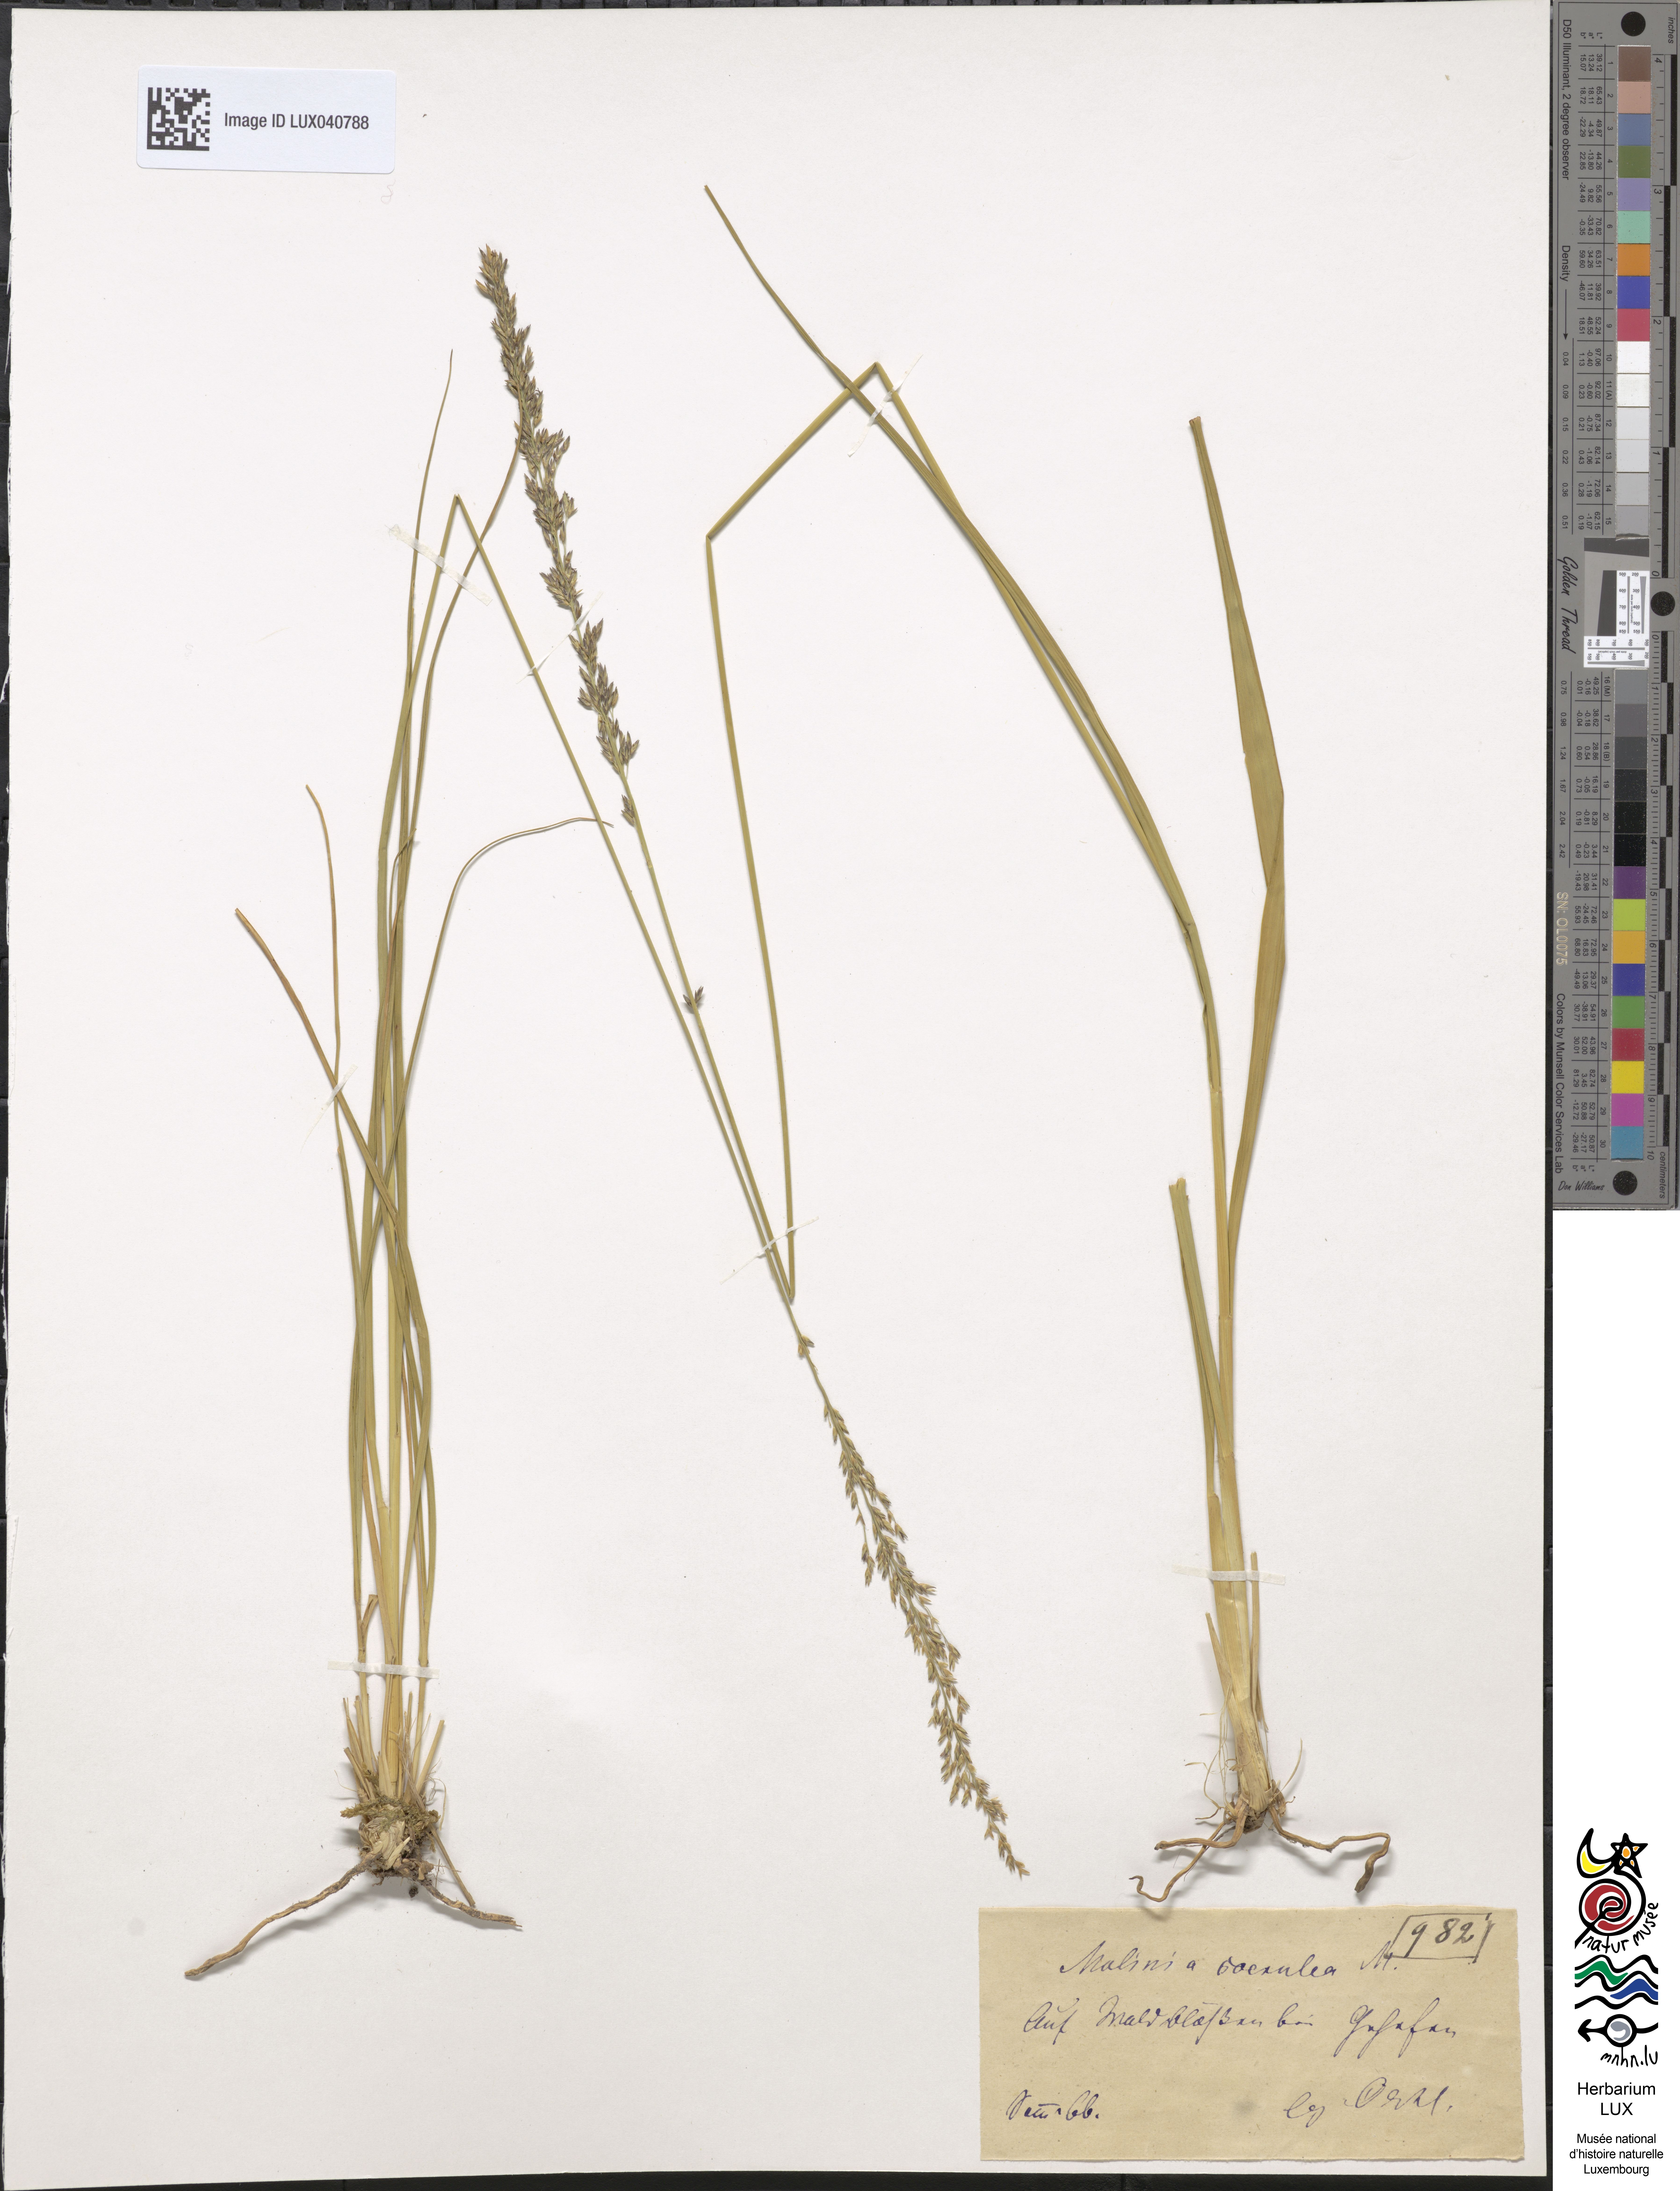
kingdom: Plantae
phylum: Tracheophyta
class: Liliopsida
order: Poales
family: Poaceae
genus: Molinia
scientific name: Molinia caerulea
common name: Purple moor-grass
